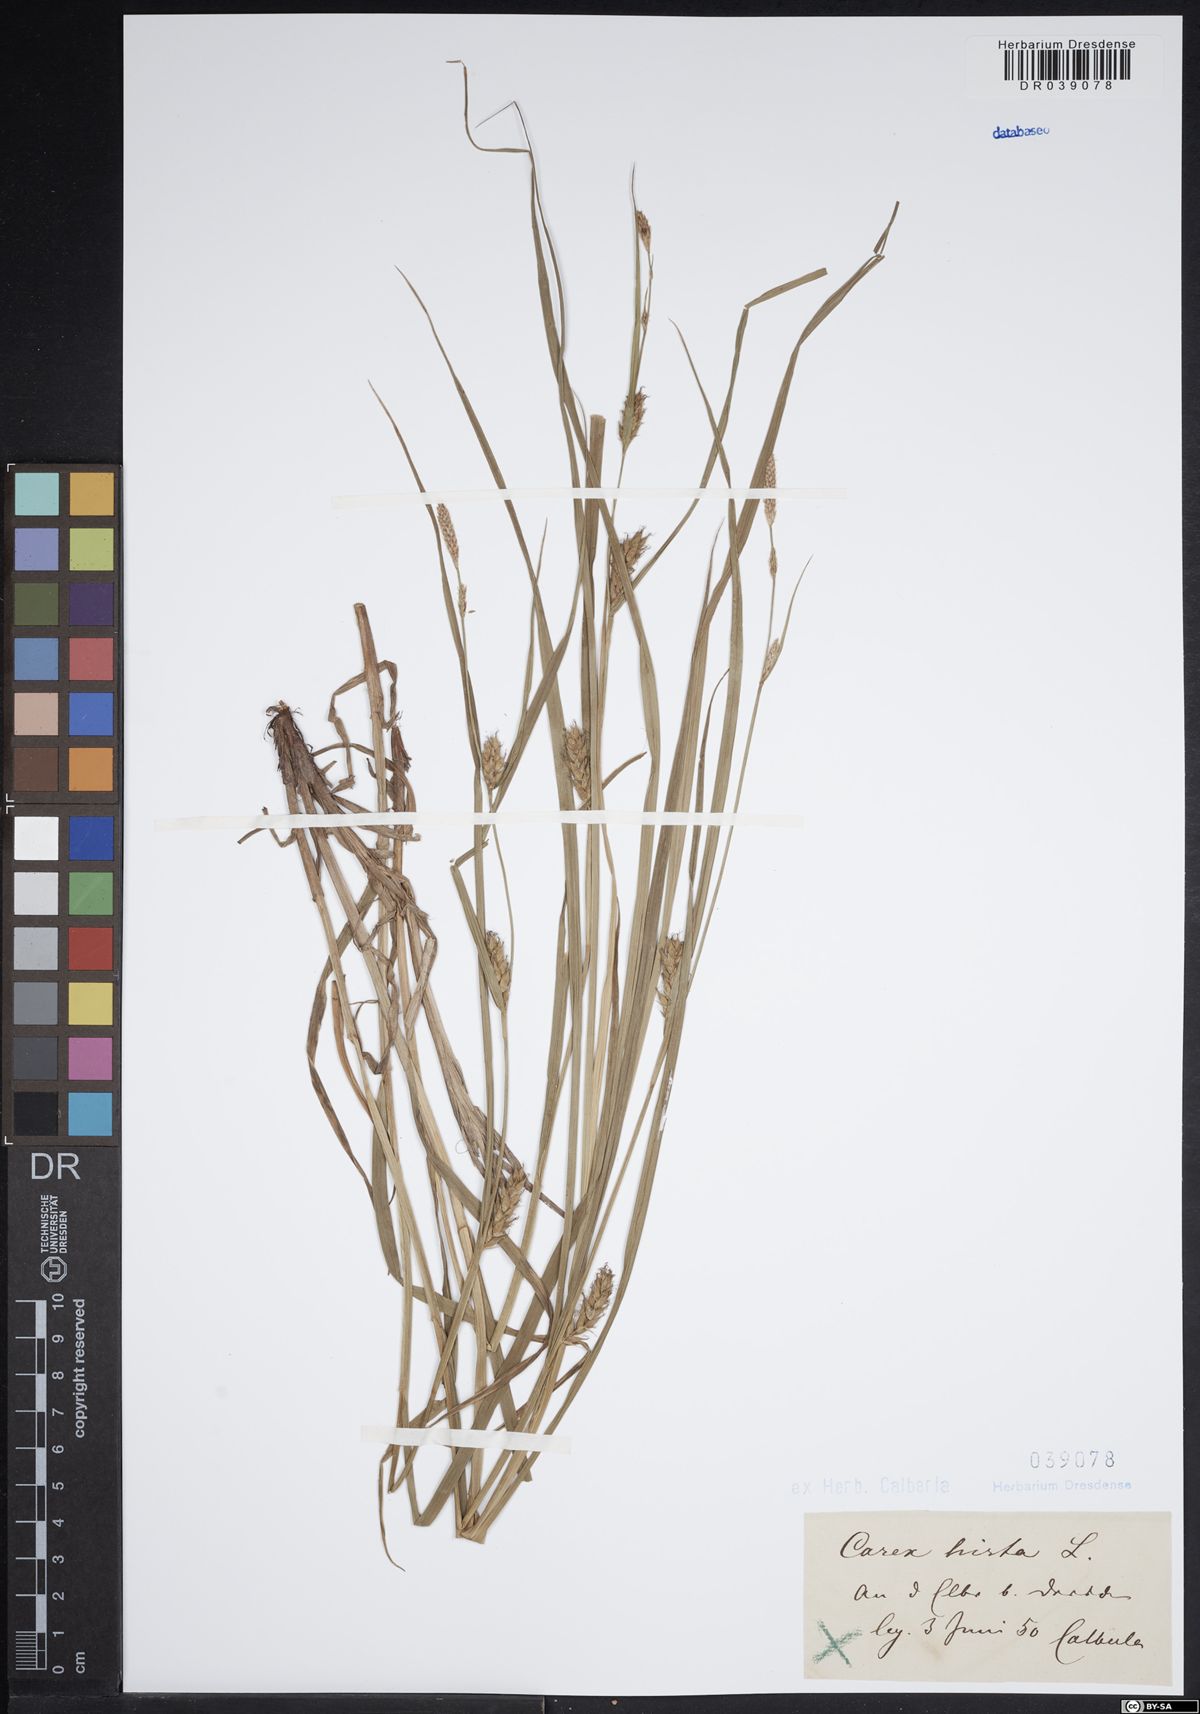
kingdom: Plantae
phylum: Tracheophyta
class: Liliopsida
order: Poales
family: Cyperaceae
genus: Carex
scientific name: Carex hirta
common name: Hairy sedge
